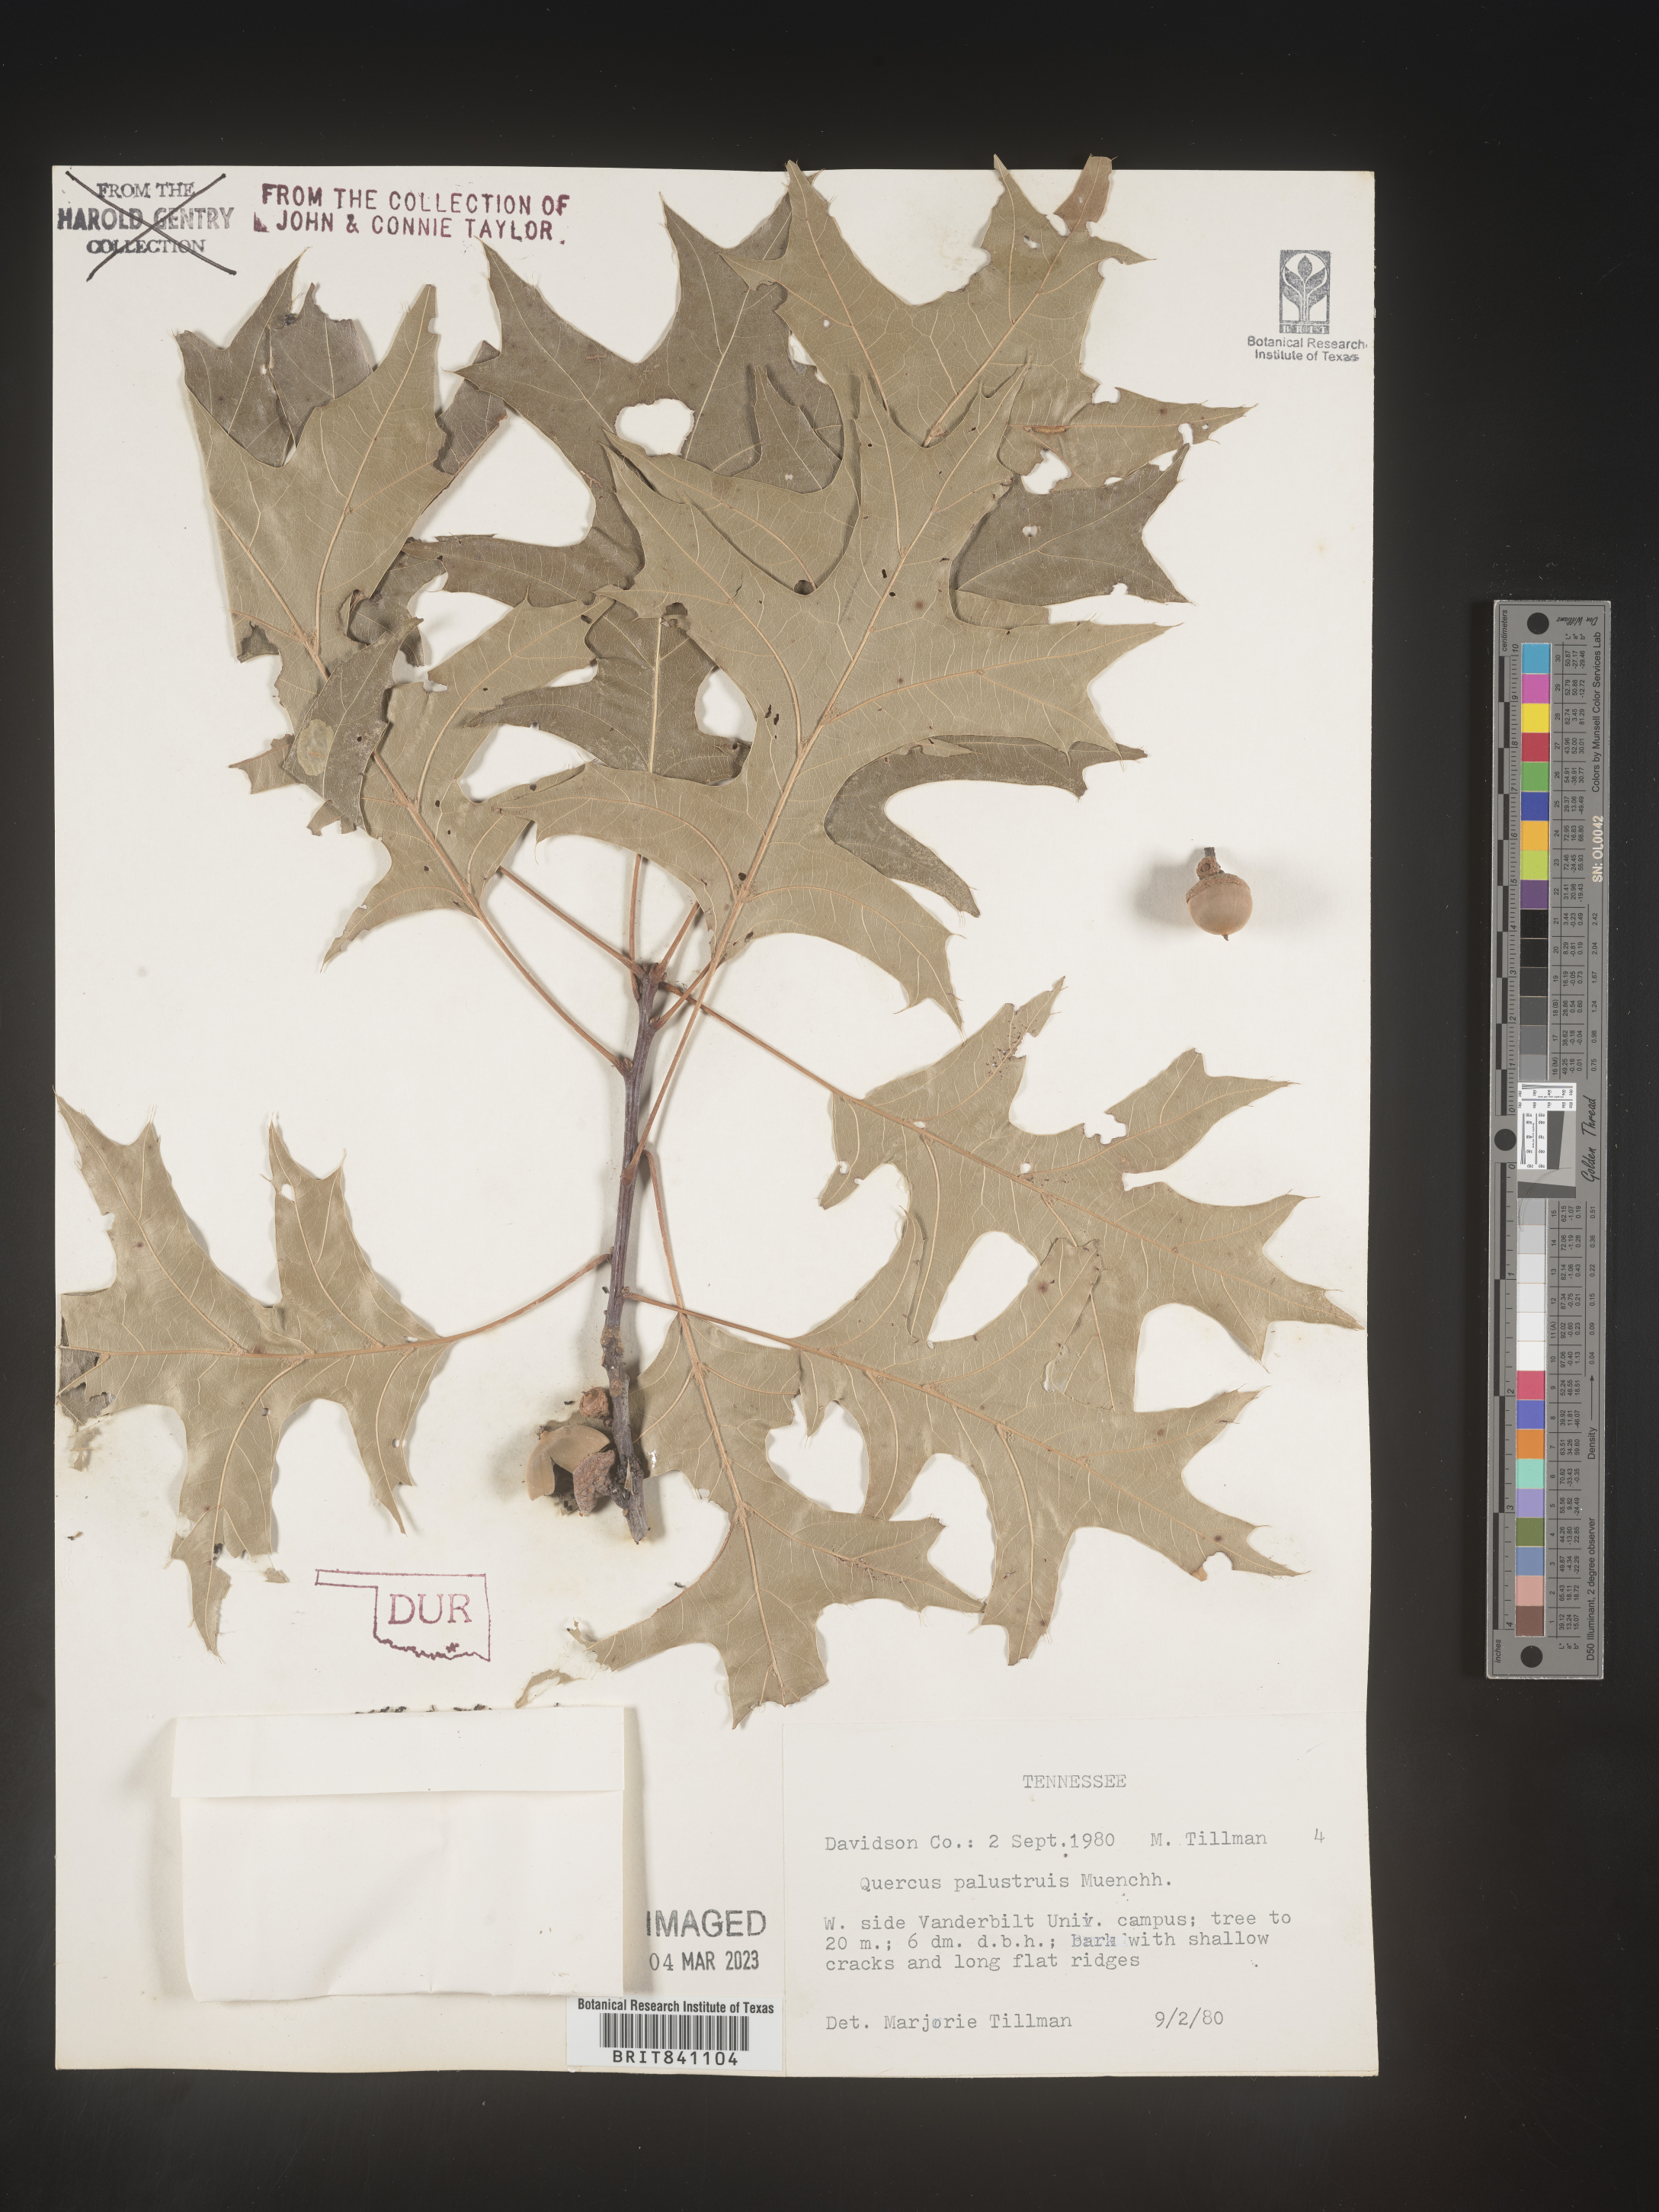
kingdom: Plantae
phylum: Tracheophyta
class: Magnoliopsida
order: Fagales
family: Fagaceae
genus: Quercus
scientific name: Quercus palustris
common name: Pin oak
